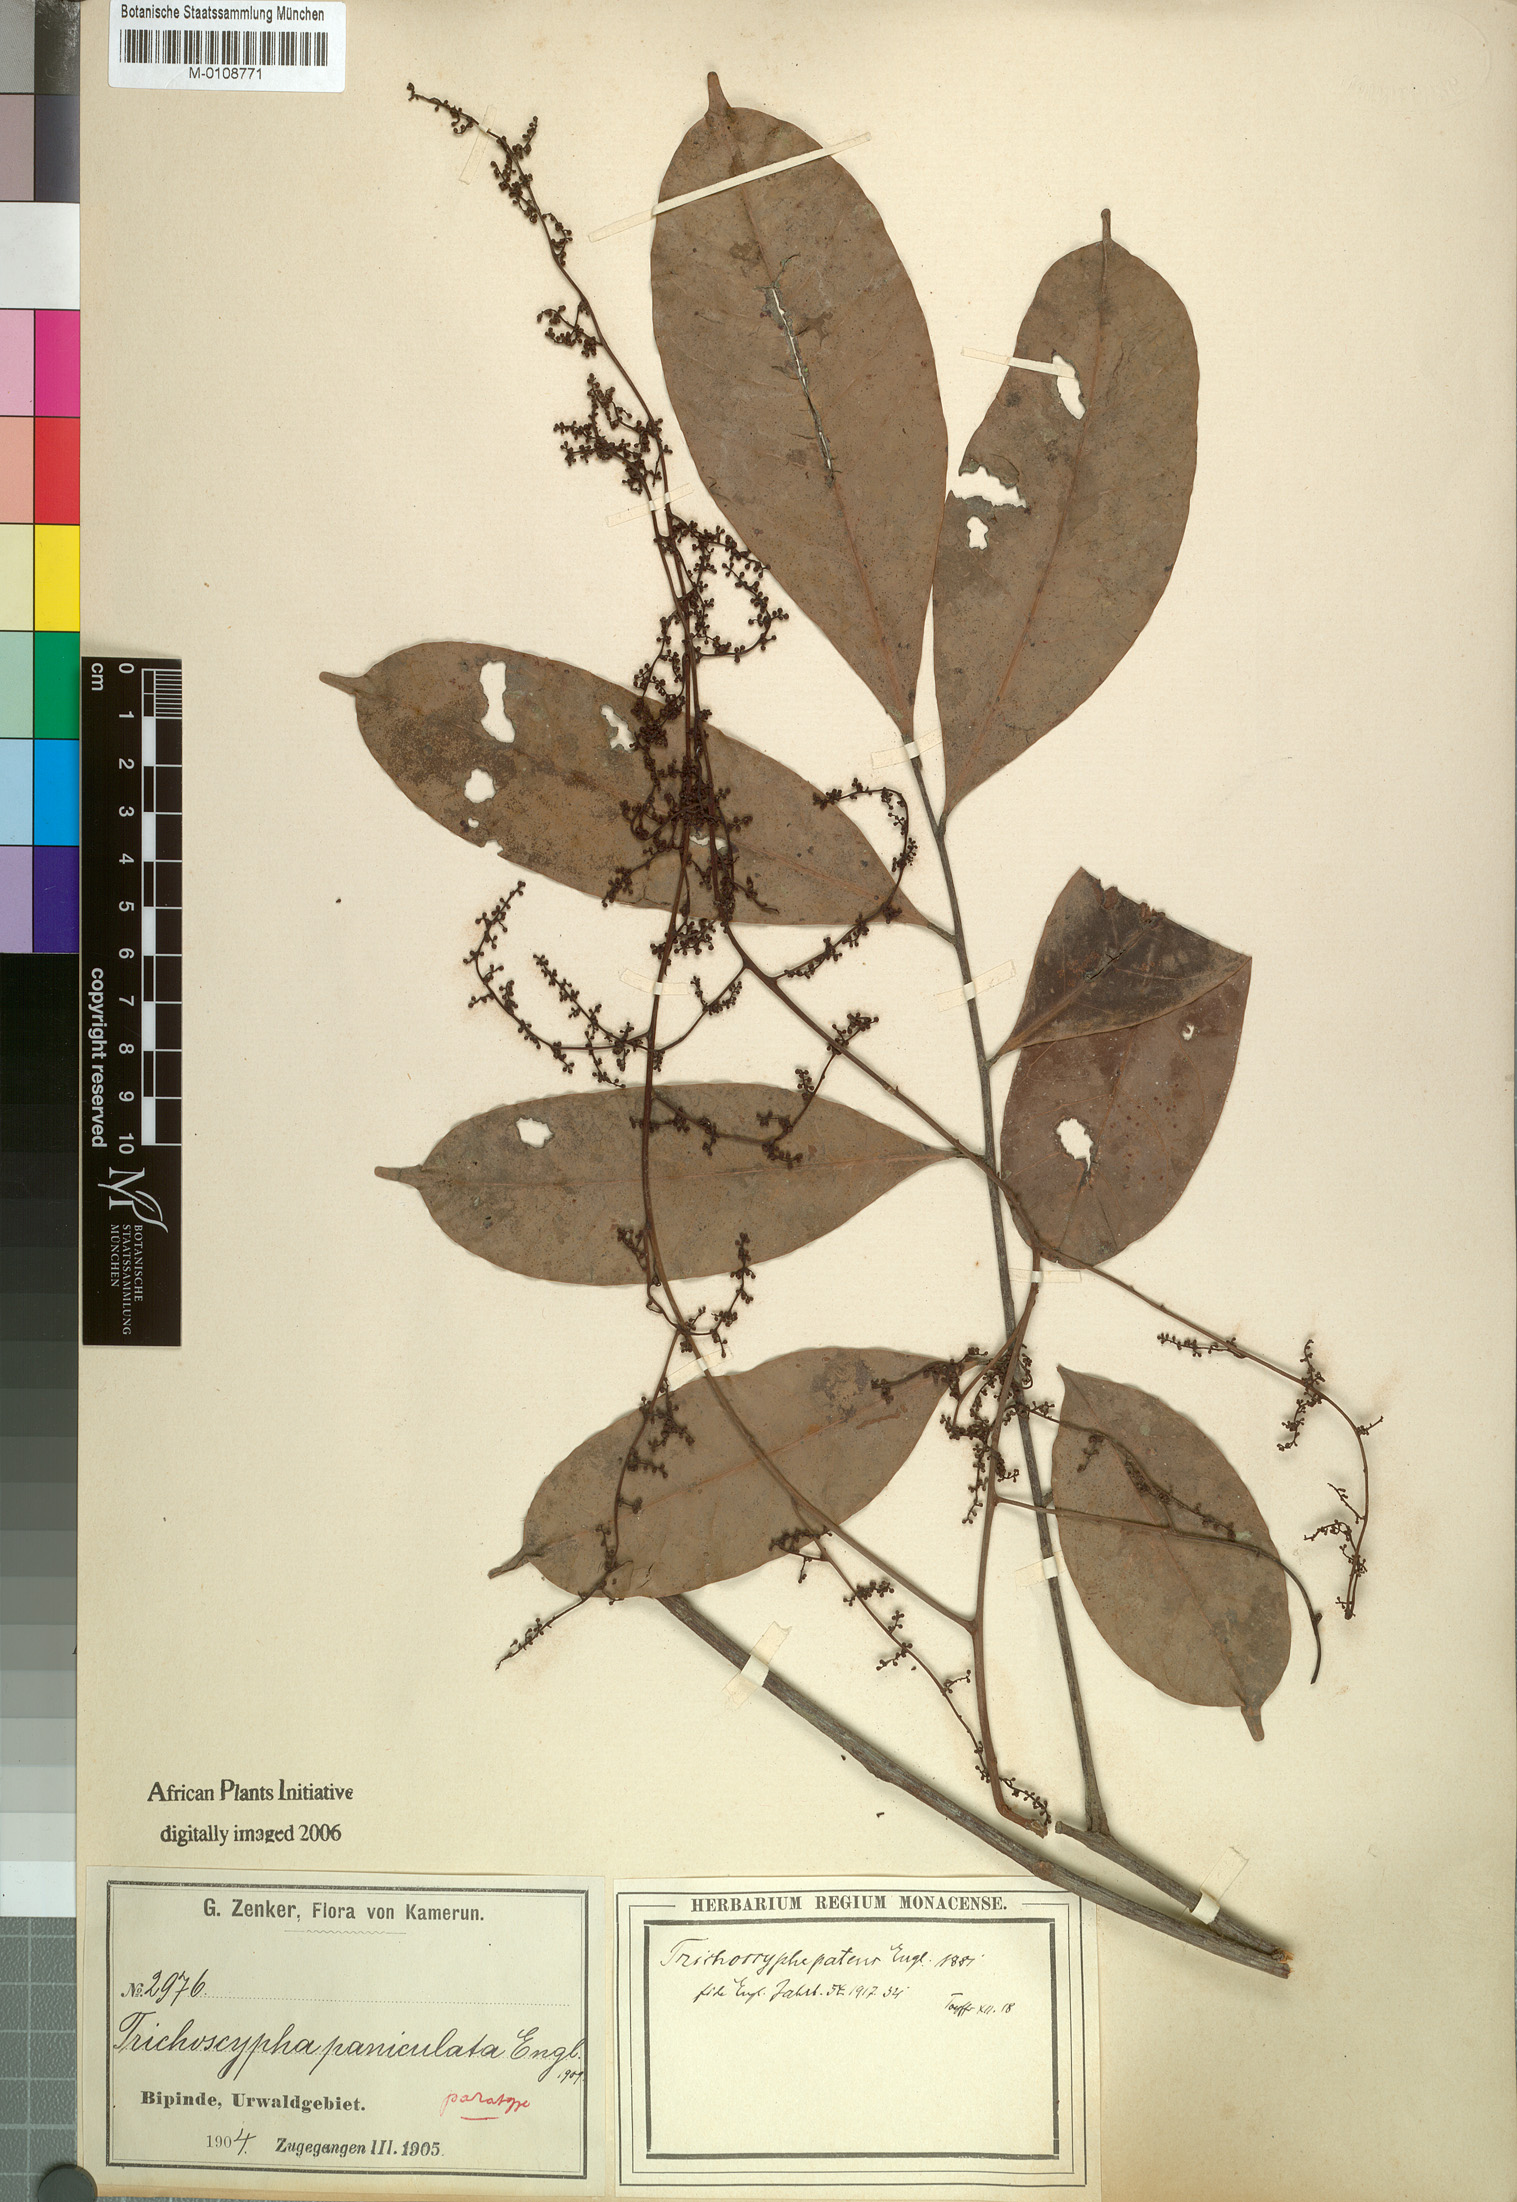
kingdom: Plantae
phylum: Tracheophyta
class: Magnoliopsida
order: Sapindales
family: Anacardiaceae
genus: Trichoscypha
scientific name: Trichoscypha patens
